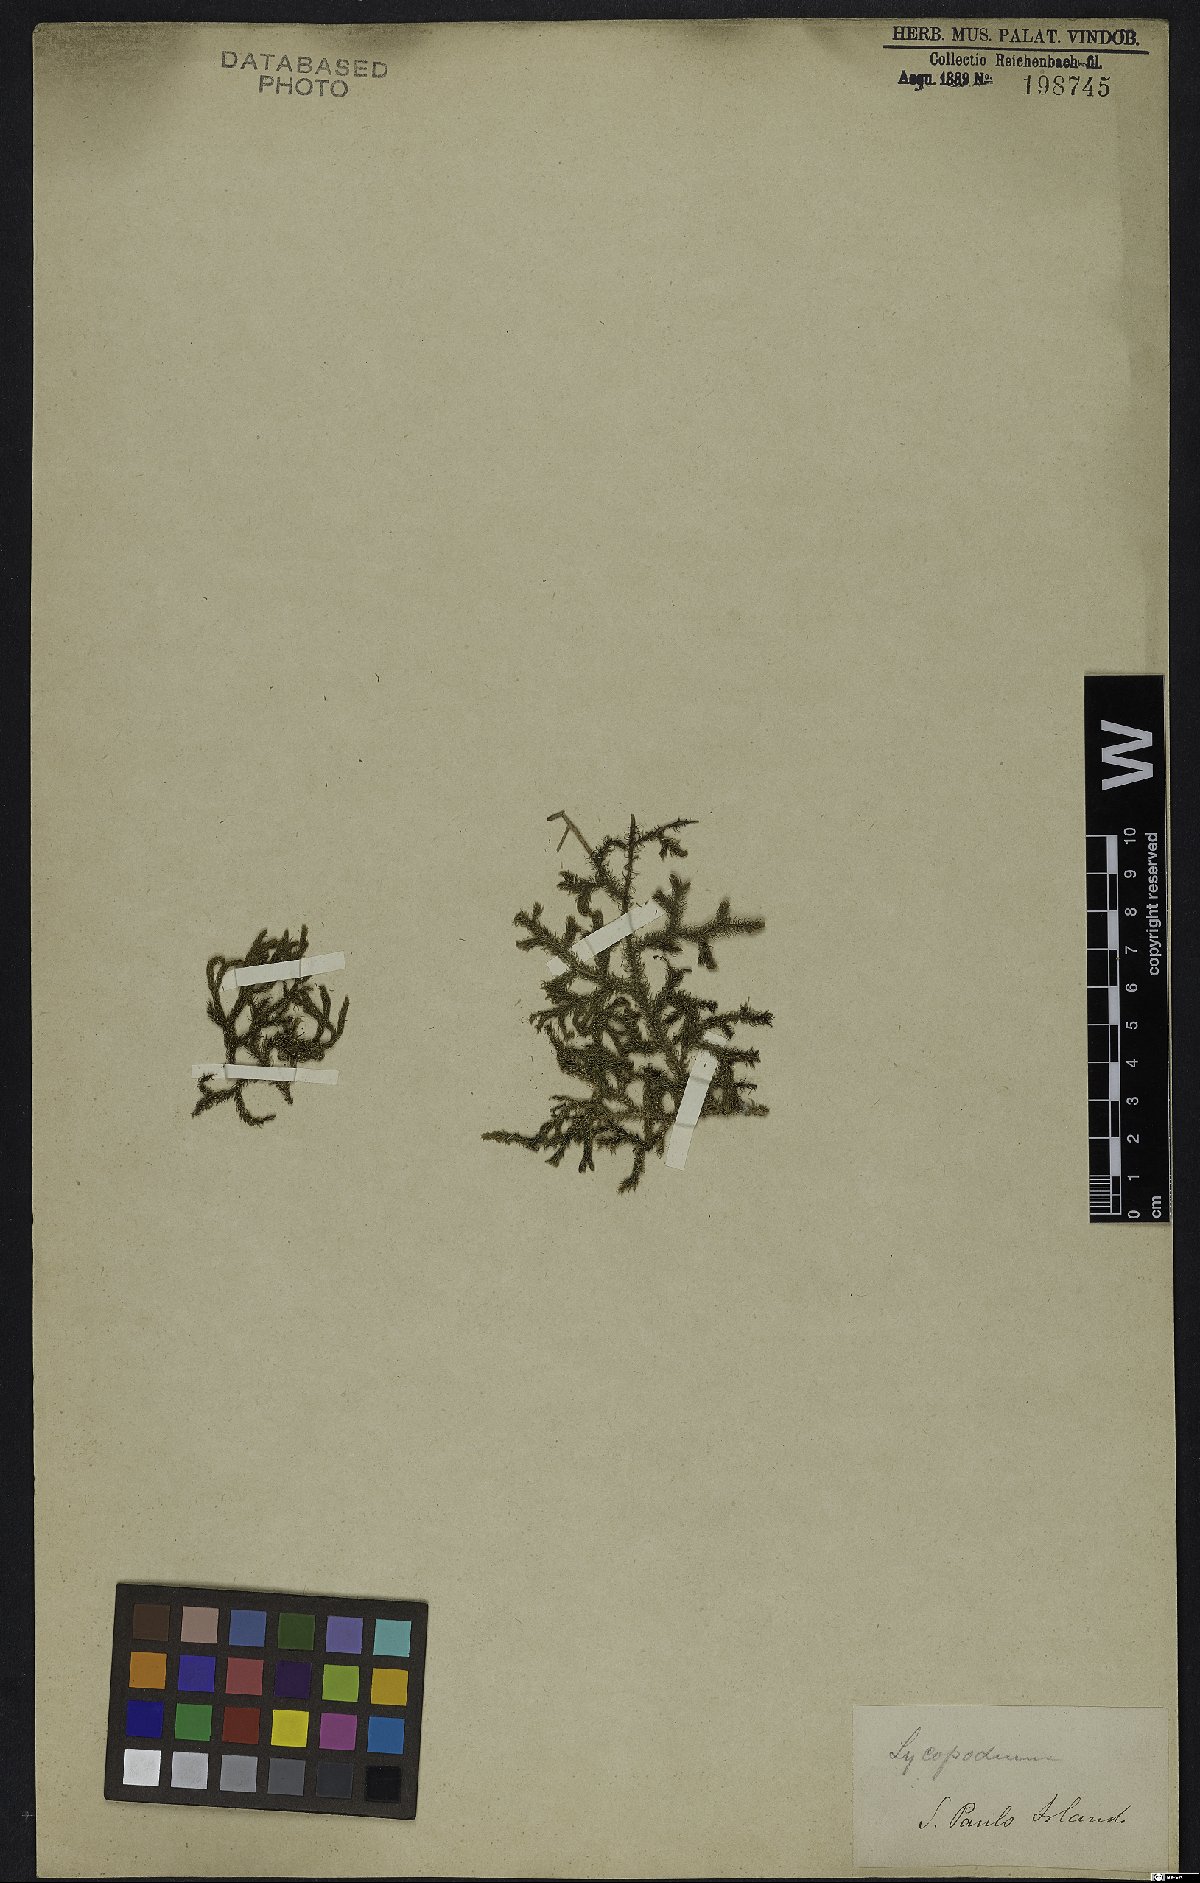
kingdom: Plantae
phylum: Tracheophyta
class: Lycopodiopsida
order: Lycopodiales
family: Lycopodiaceae
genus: Lycopodium
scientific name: Lycopodium
